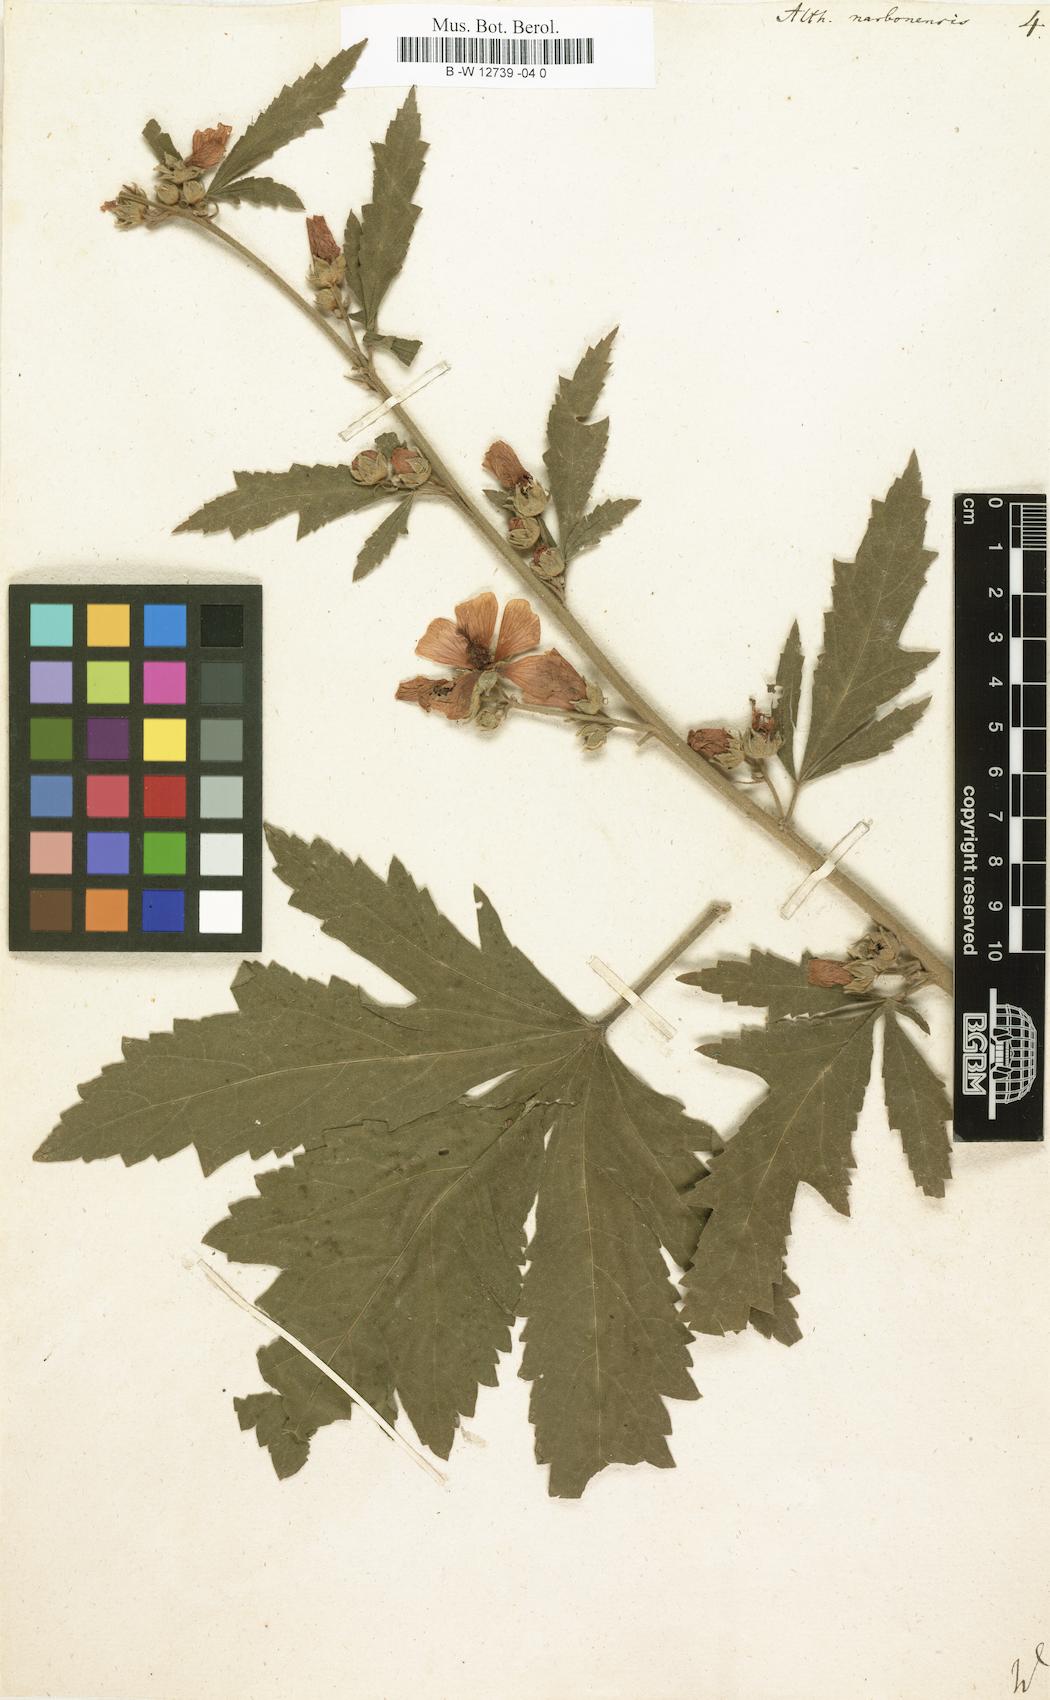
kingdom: Plantae
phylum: Tracheophyta
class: Magnoliopsida
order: Malvales
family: Malvaceae
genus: Althaea
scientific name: Althaea cannabina
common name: Palm-leaf marshmallow
